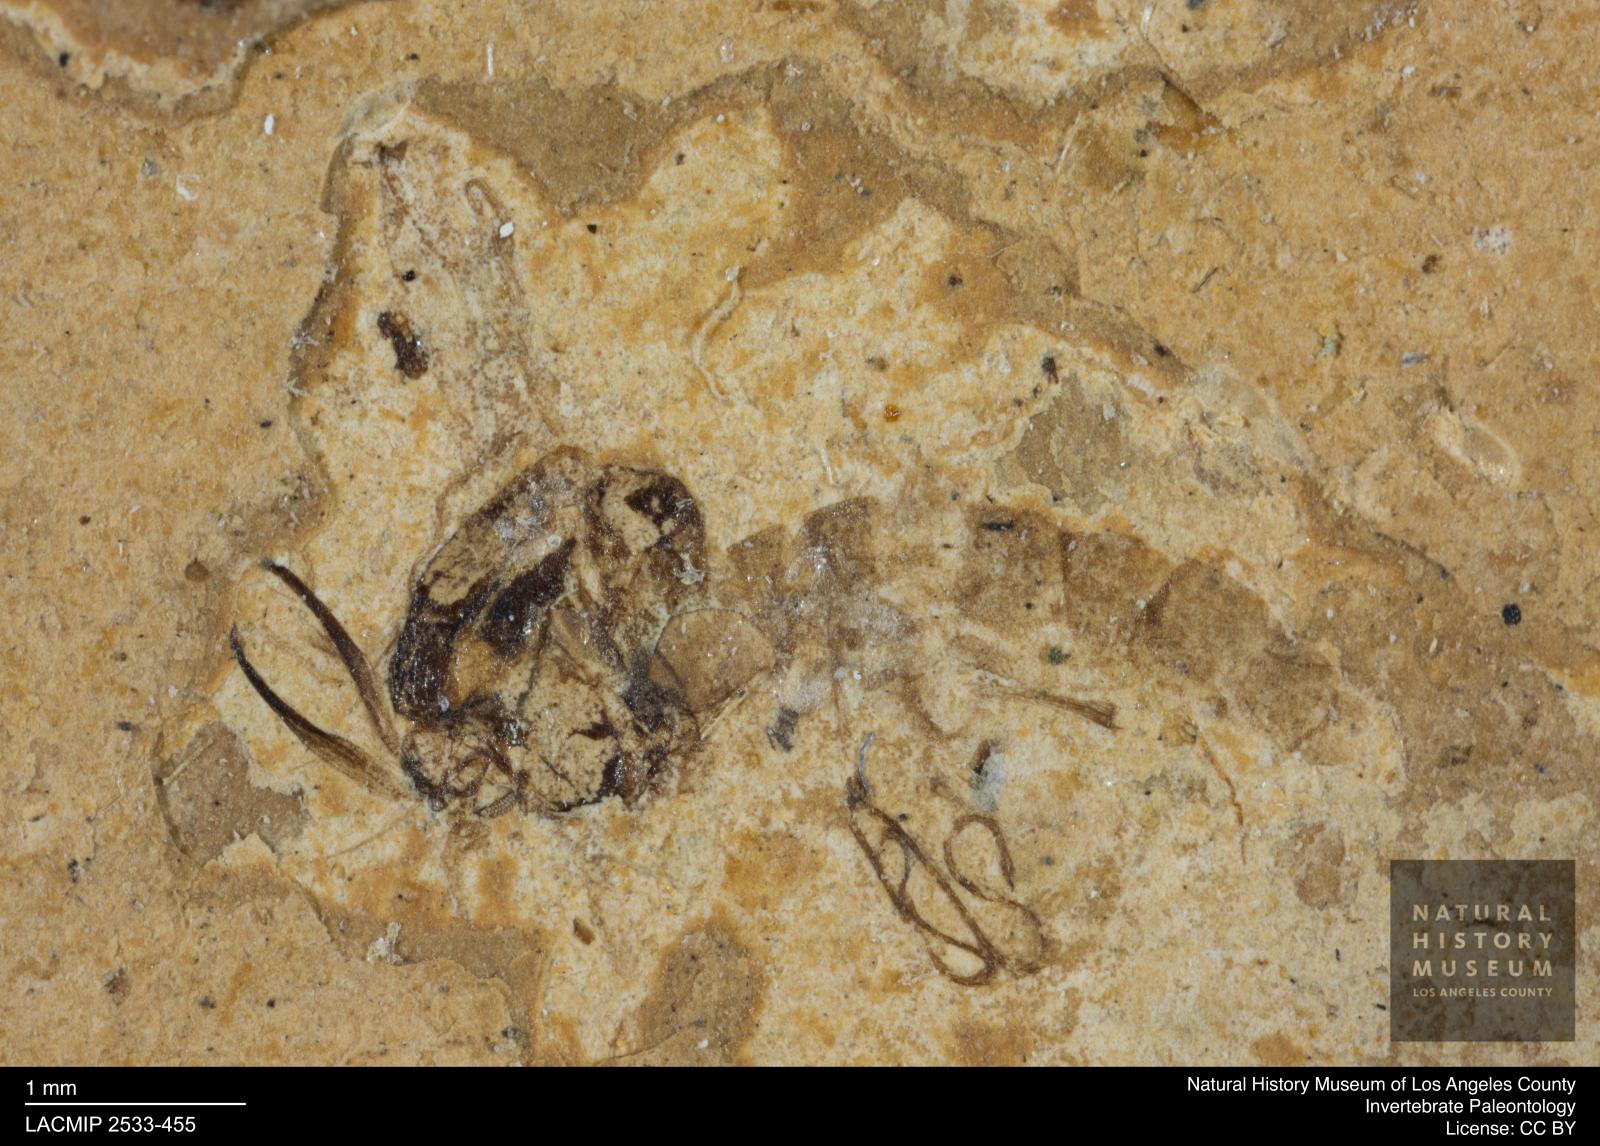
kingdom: Animalia
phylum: Arthropoda
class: Insecta
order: Diptera
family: Chironomidae
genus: Tanypus
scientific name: Tanypus thienemanni
